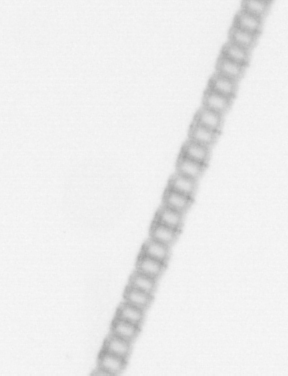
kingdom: Chromista
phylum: Ochrophyta
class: Bacillariophyceae
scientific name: Bacillariophyceae
